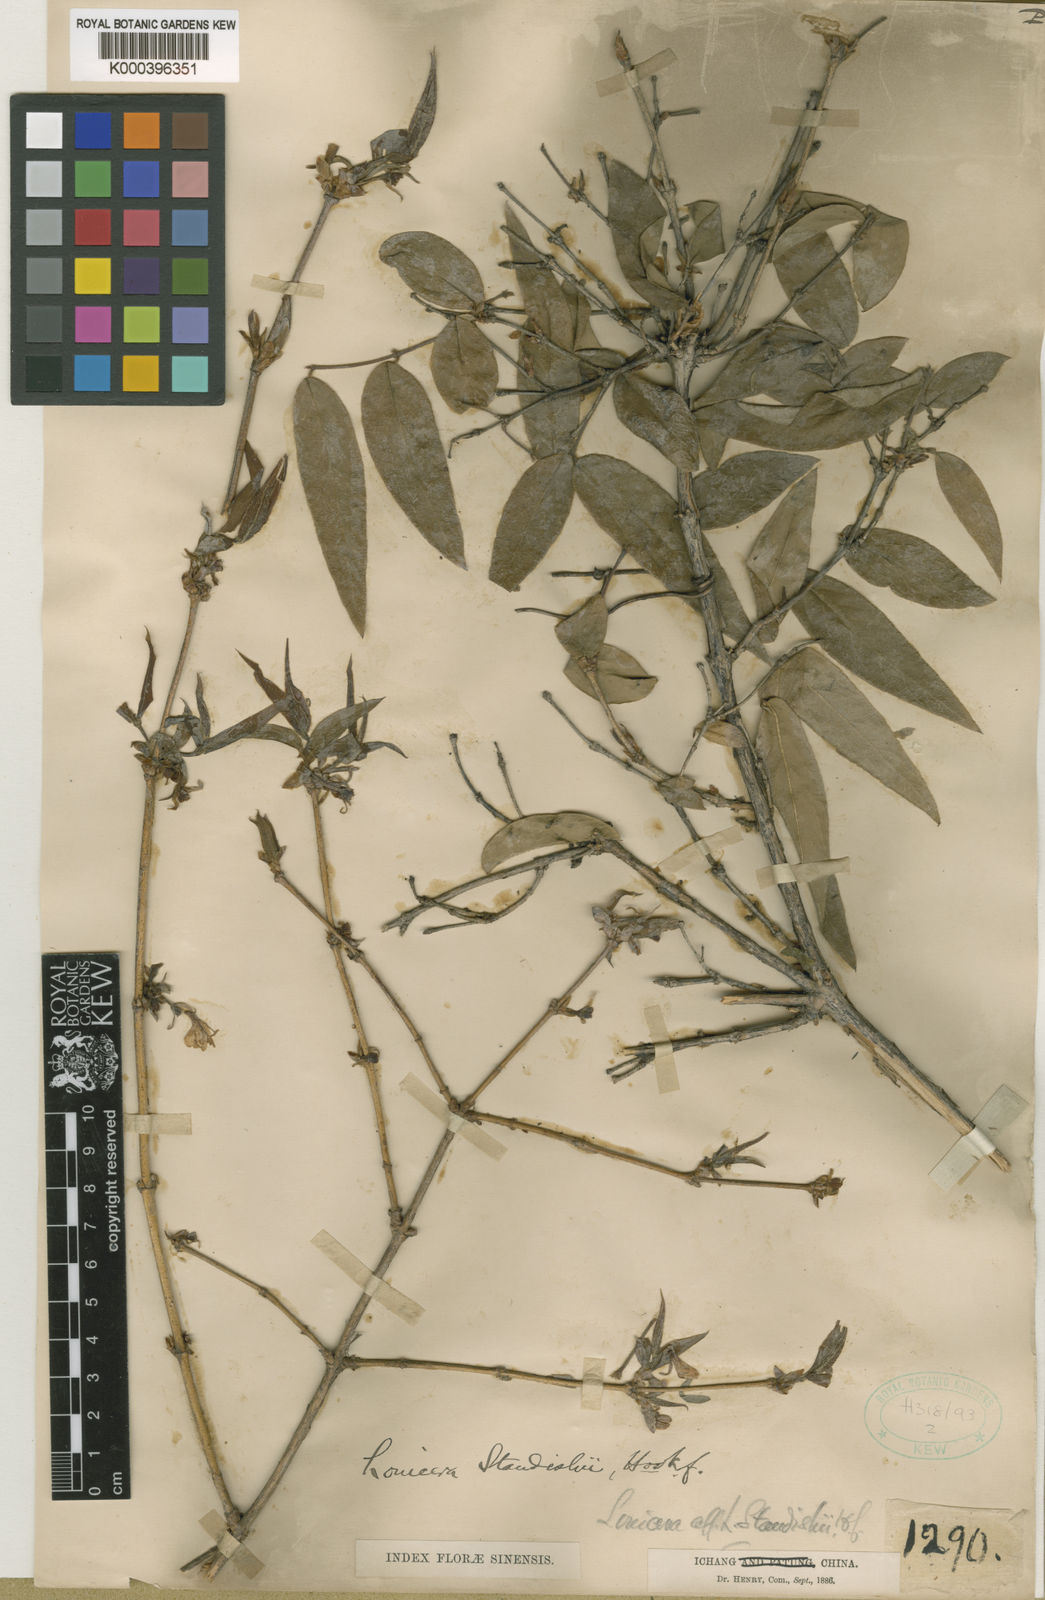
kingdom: Plantae
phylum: Tracheophyta
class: Magnoliopsida
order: Dipsacales
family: Caprifoliaceae
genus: Lonicera
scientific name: Lonicera fragrantissima
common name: Fragrant honeysuckle
